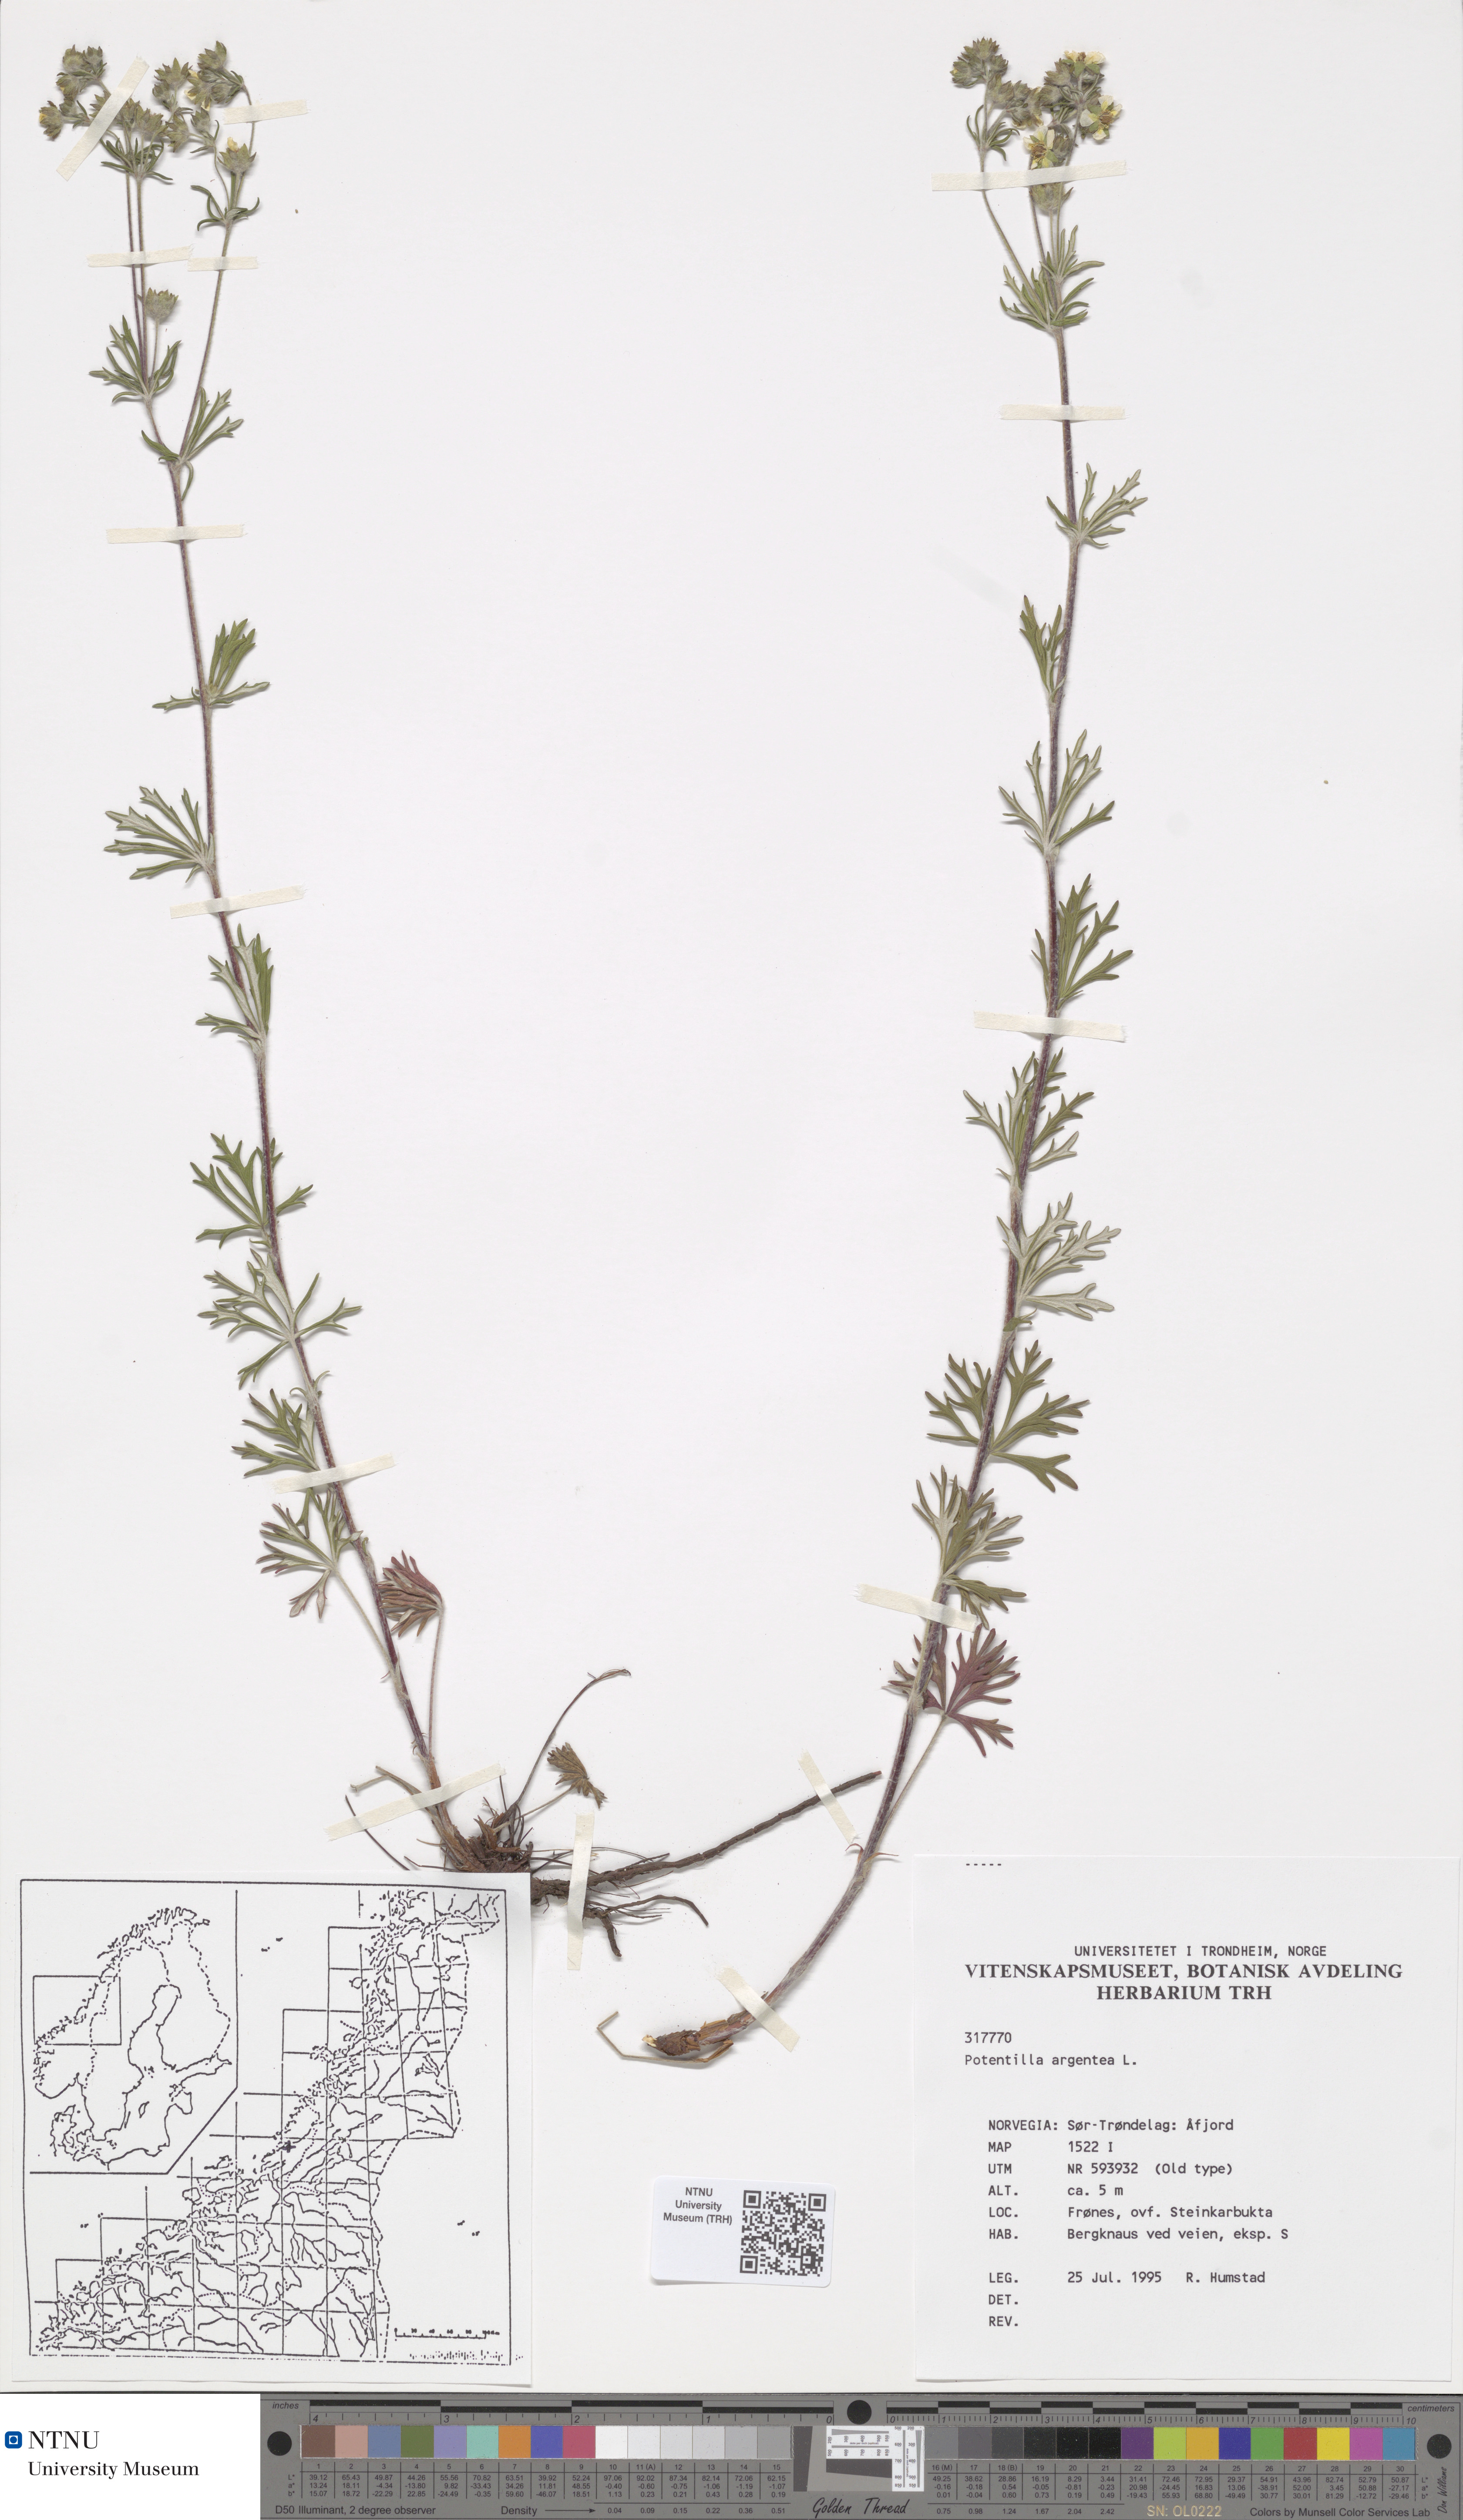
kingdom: Plantae
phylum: Tracheophyta
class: Magnoliopsida
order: Rosales
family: Rosaceae
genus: Potentilla
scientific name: Potentilla argentea
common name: Hoary cinquefoil
